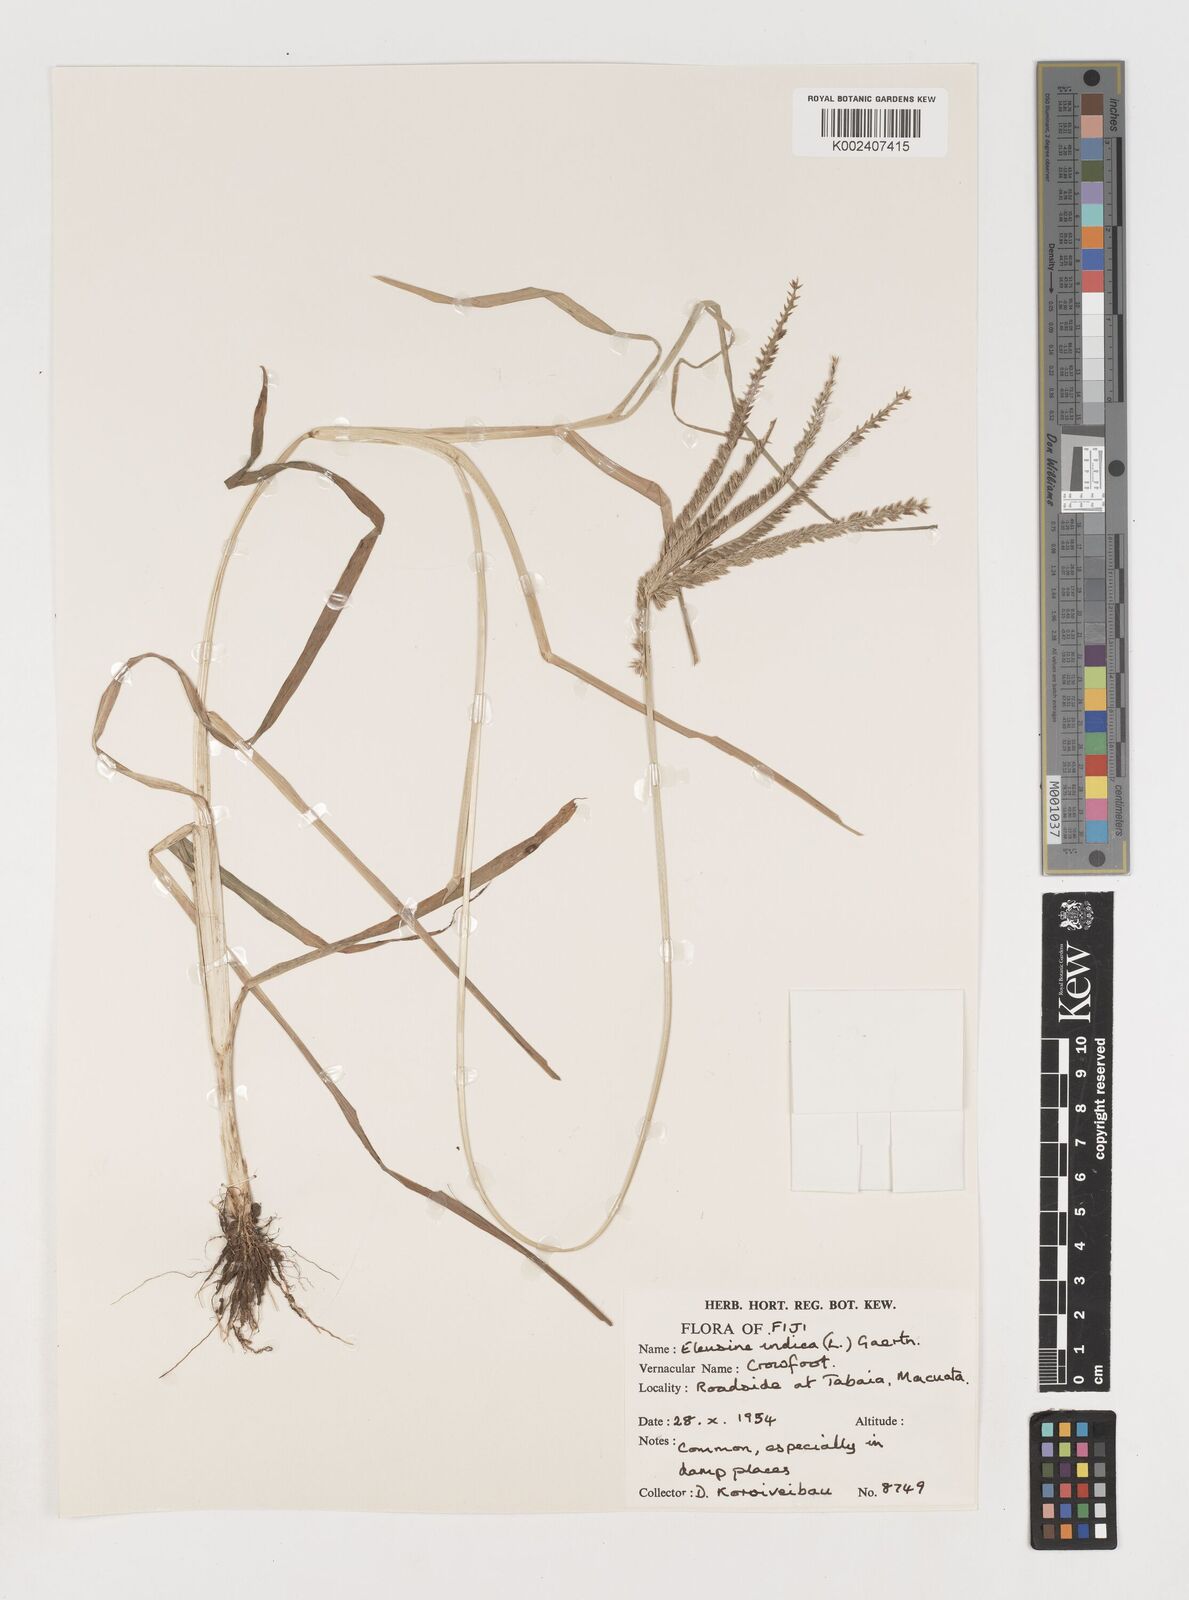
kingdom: Plantae
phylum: Tracheophyta
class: Liliopsida
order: Poales
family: Poaceae
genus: Eleusine
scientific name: Eleusine indica
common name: Yard-grass
